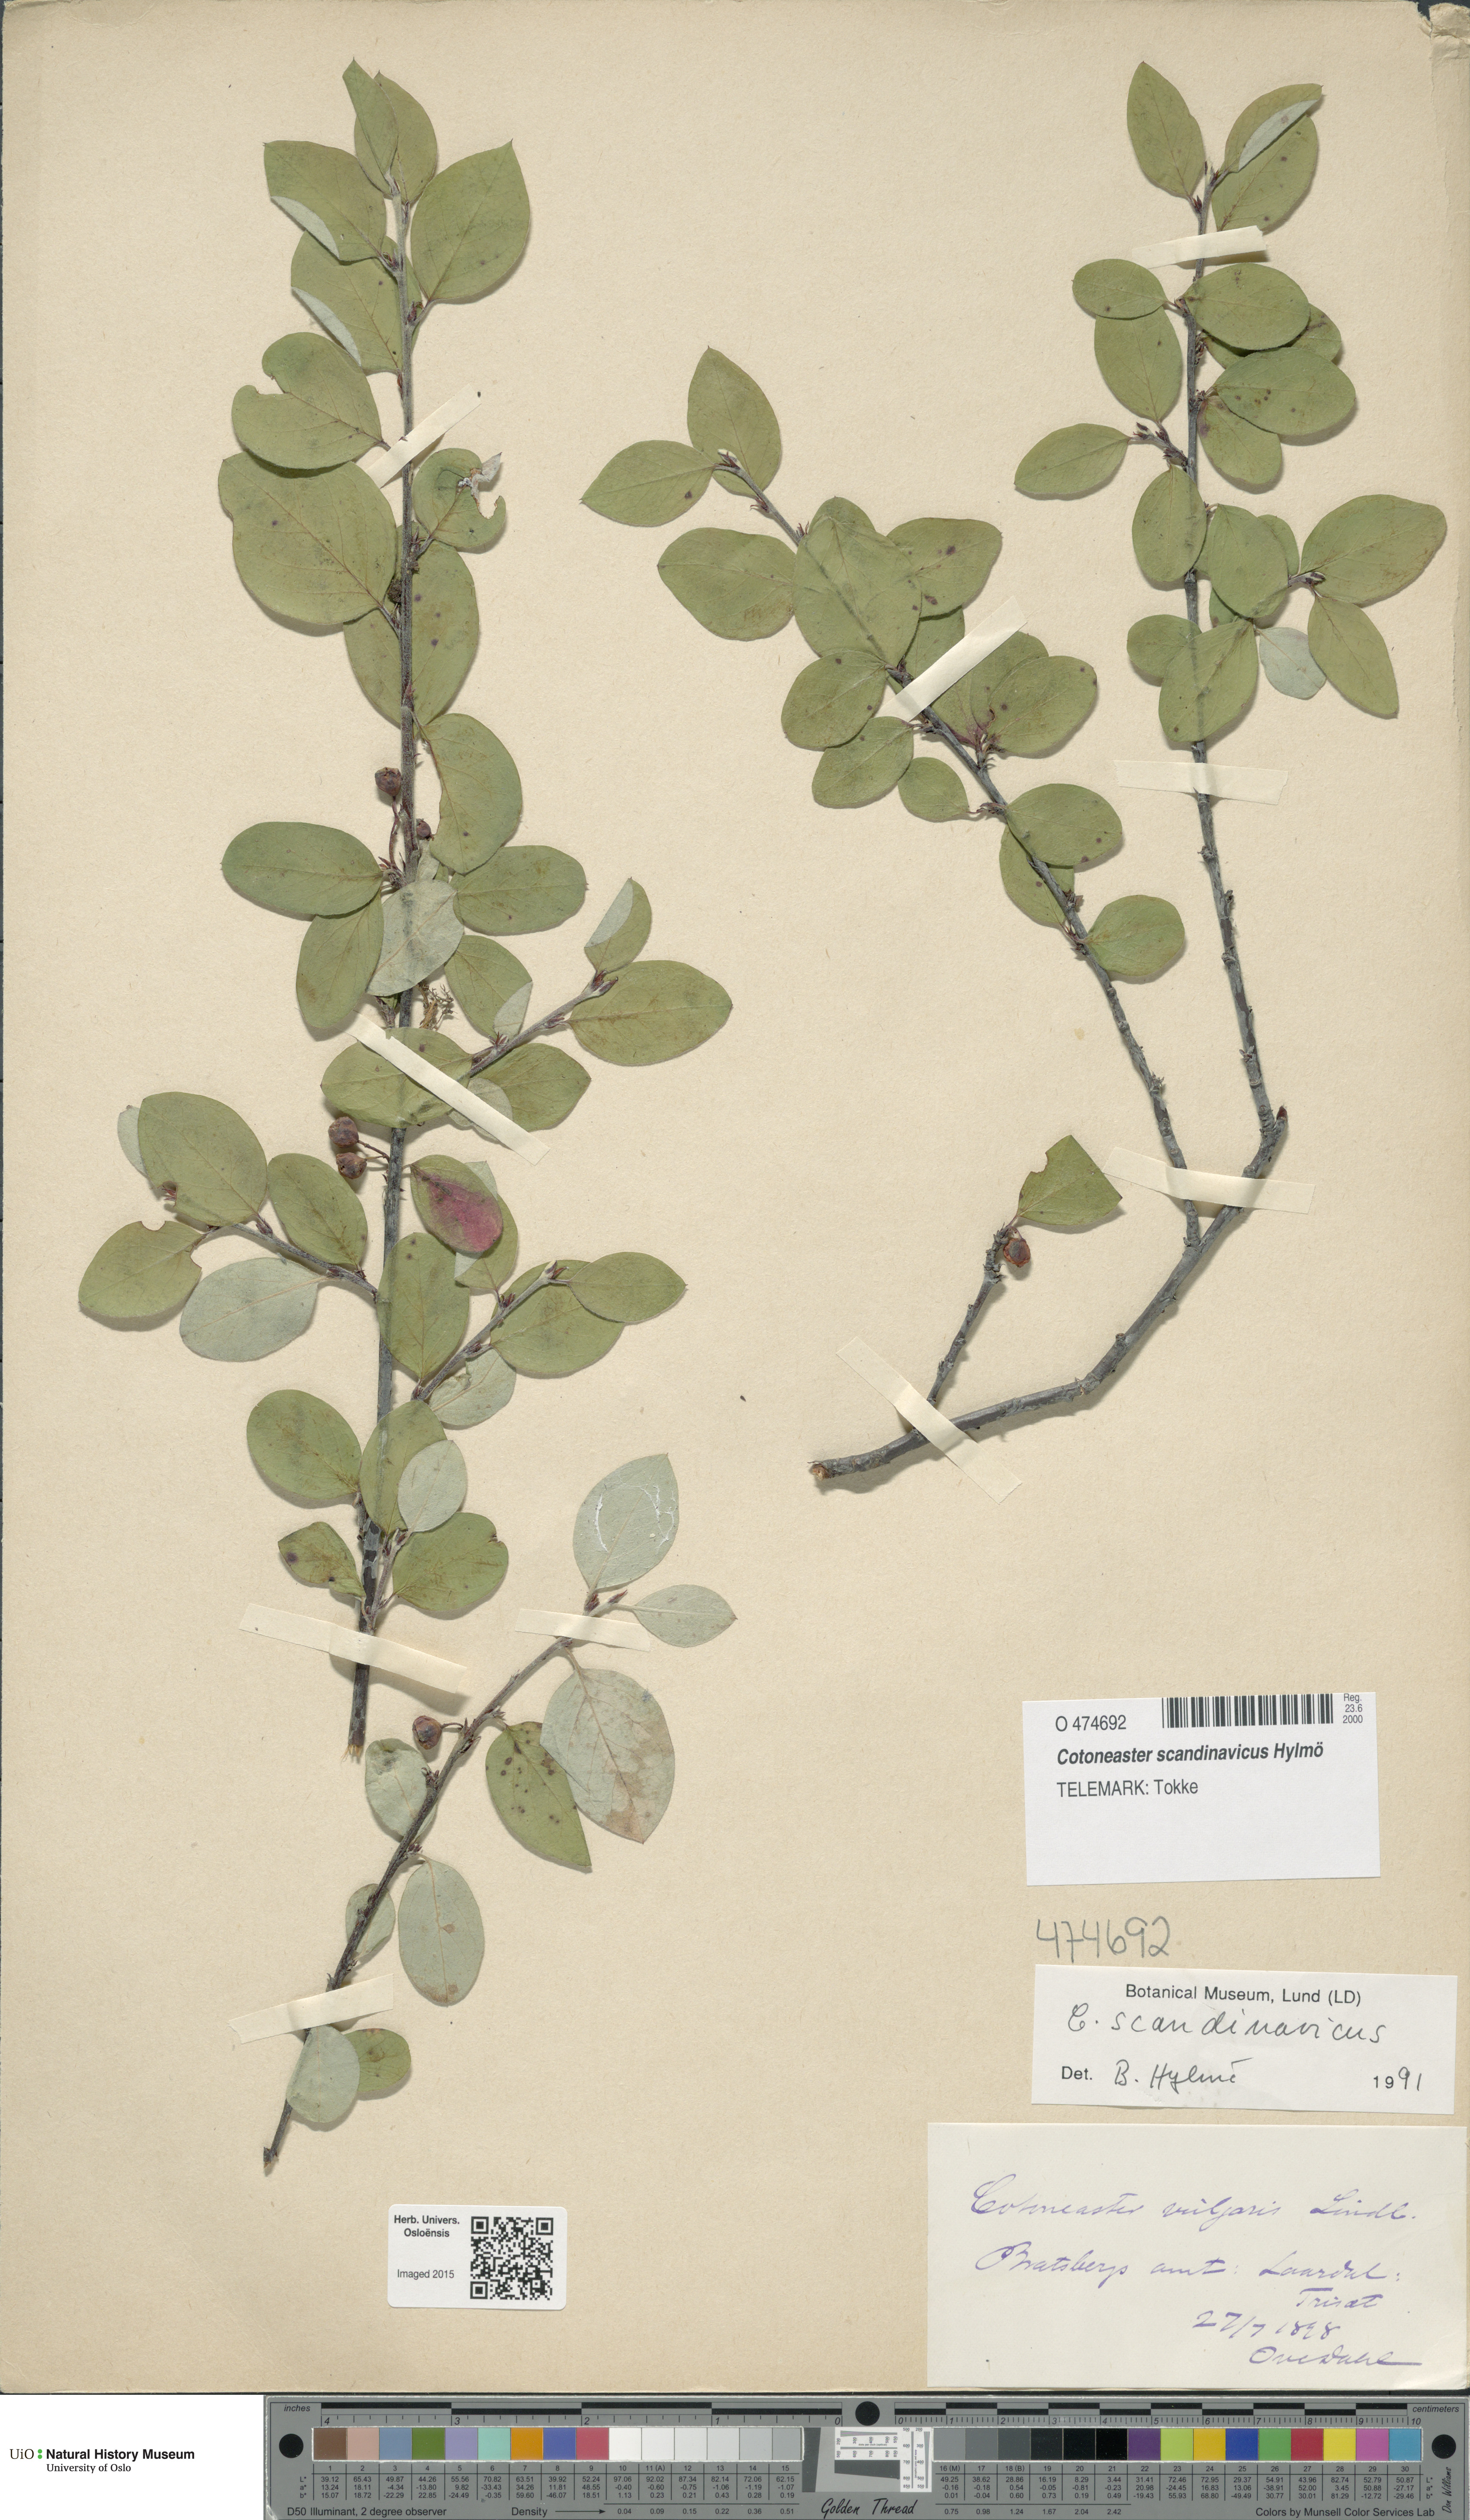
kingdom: Plantae
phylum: Tracheophyta
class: Magnoliopsida
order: Rosales
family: Rosaceae
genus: Cotoneaster
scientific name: Cotoneaster integerrimus
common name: Wild cotoneaster
